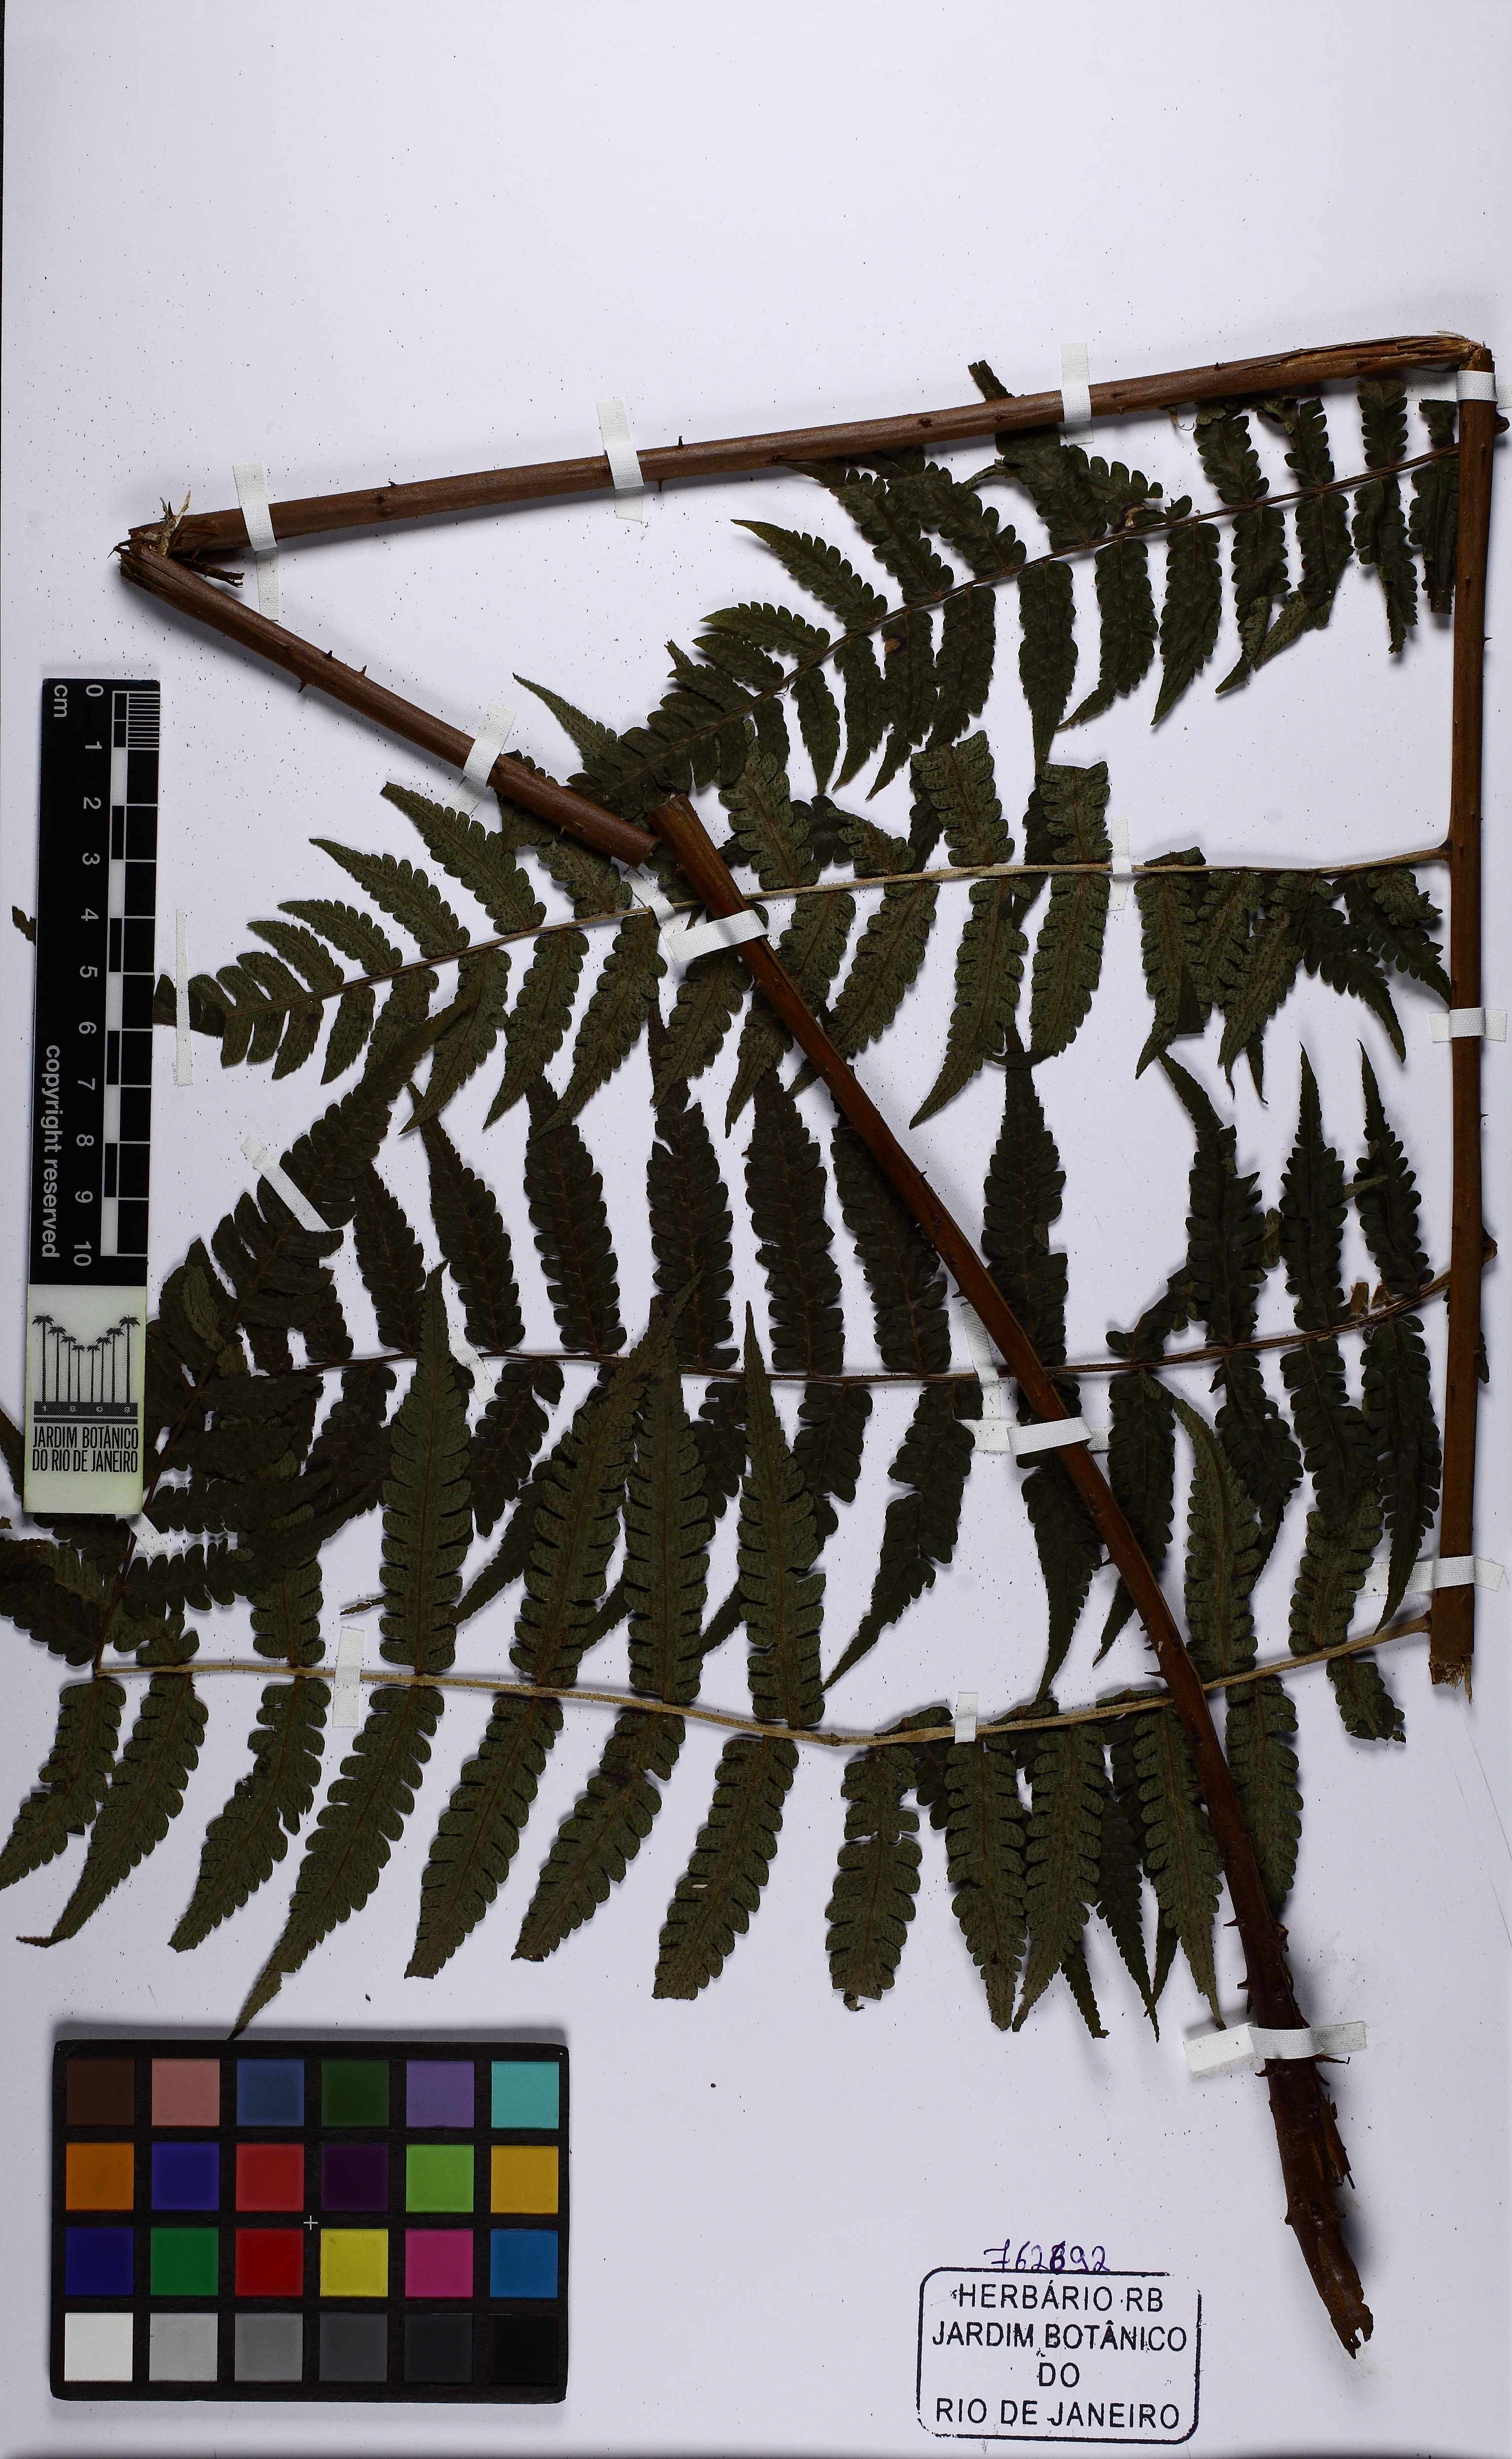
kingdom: Plantae
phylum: Tracheophyta
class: Polypodiopsida
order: Cyatheales
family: Cyatheaceae
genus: Cyathea
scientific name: Cyathea pungens
